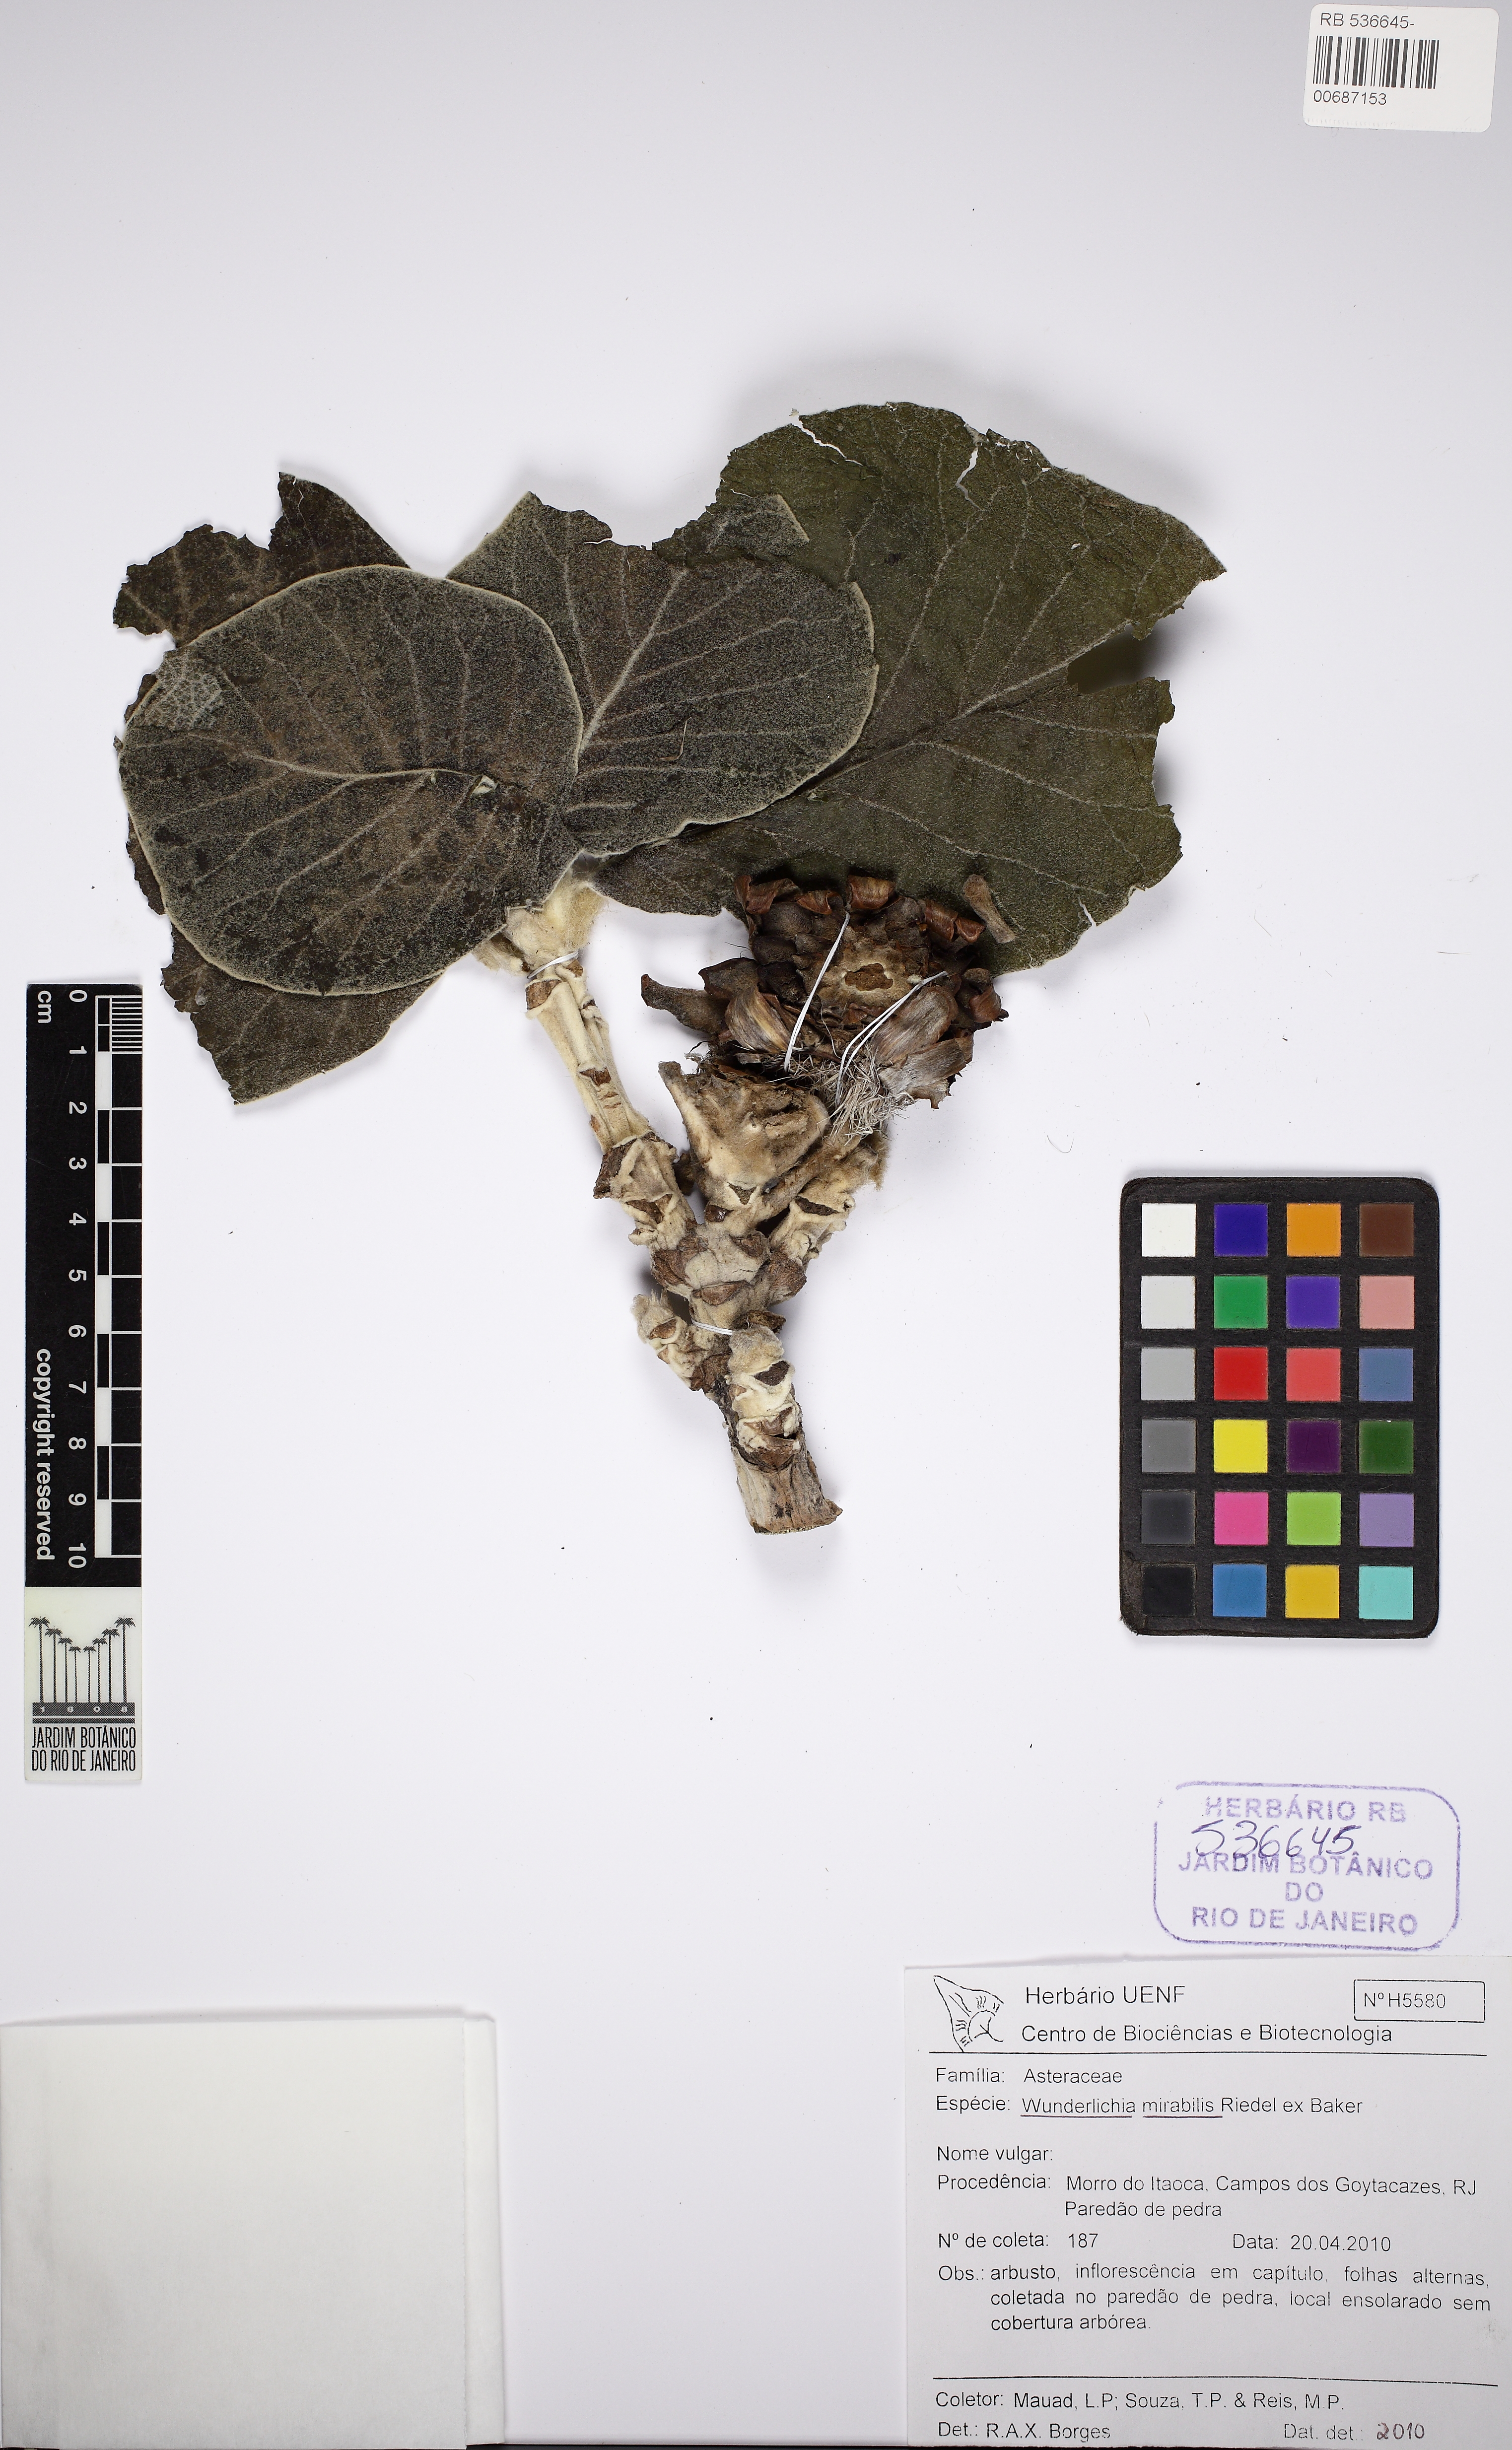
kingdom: Plantae
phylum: Tracheophyta
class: Magnoliopsida
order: Asterales
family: Asteraceae
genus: Wunderlichia
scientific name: Wunderlichia azulensis
